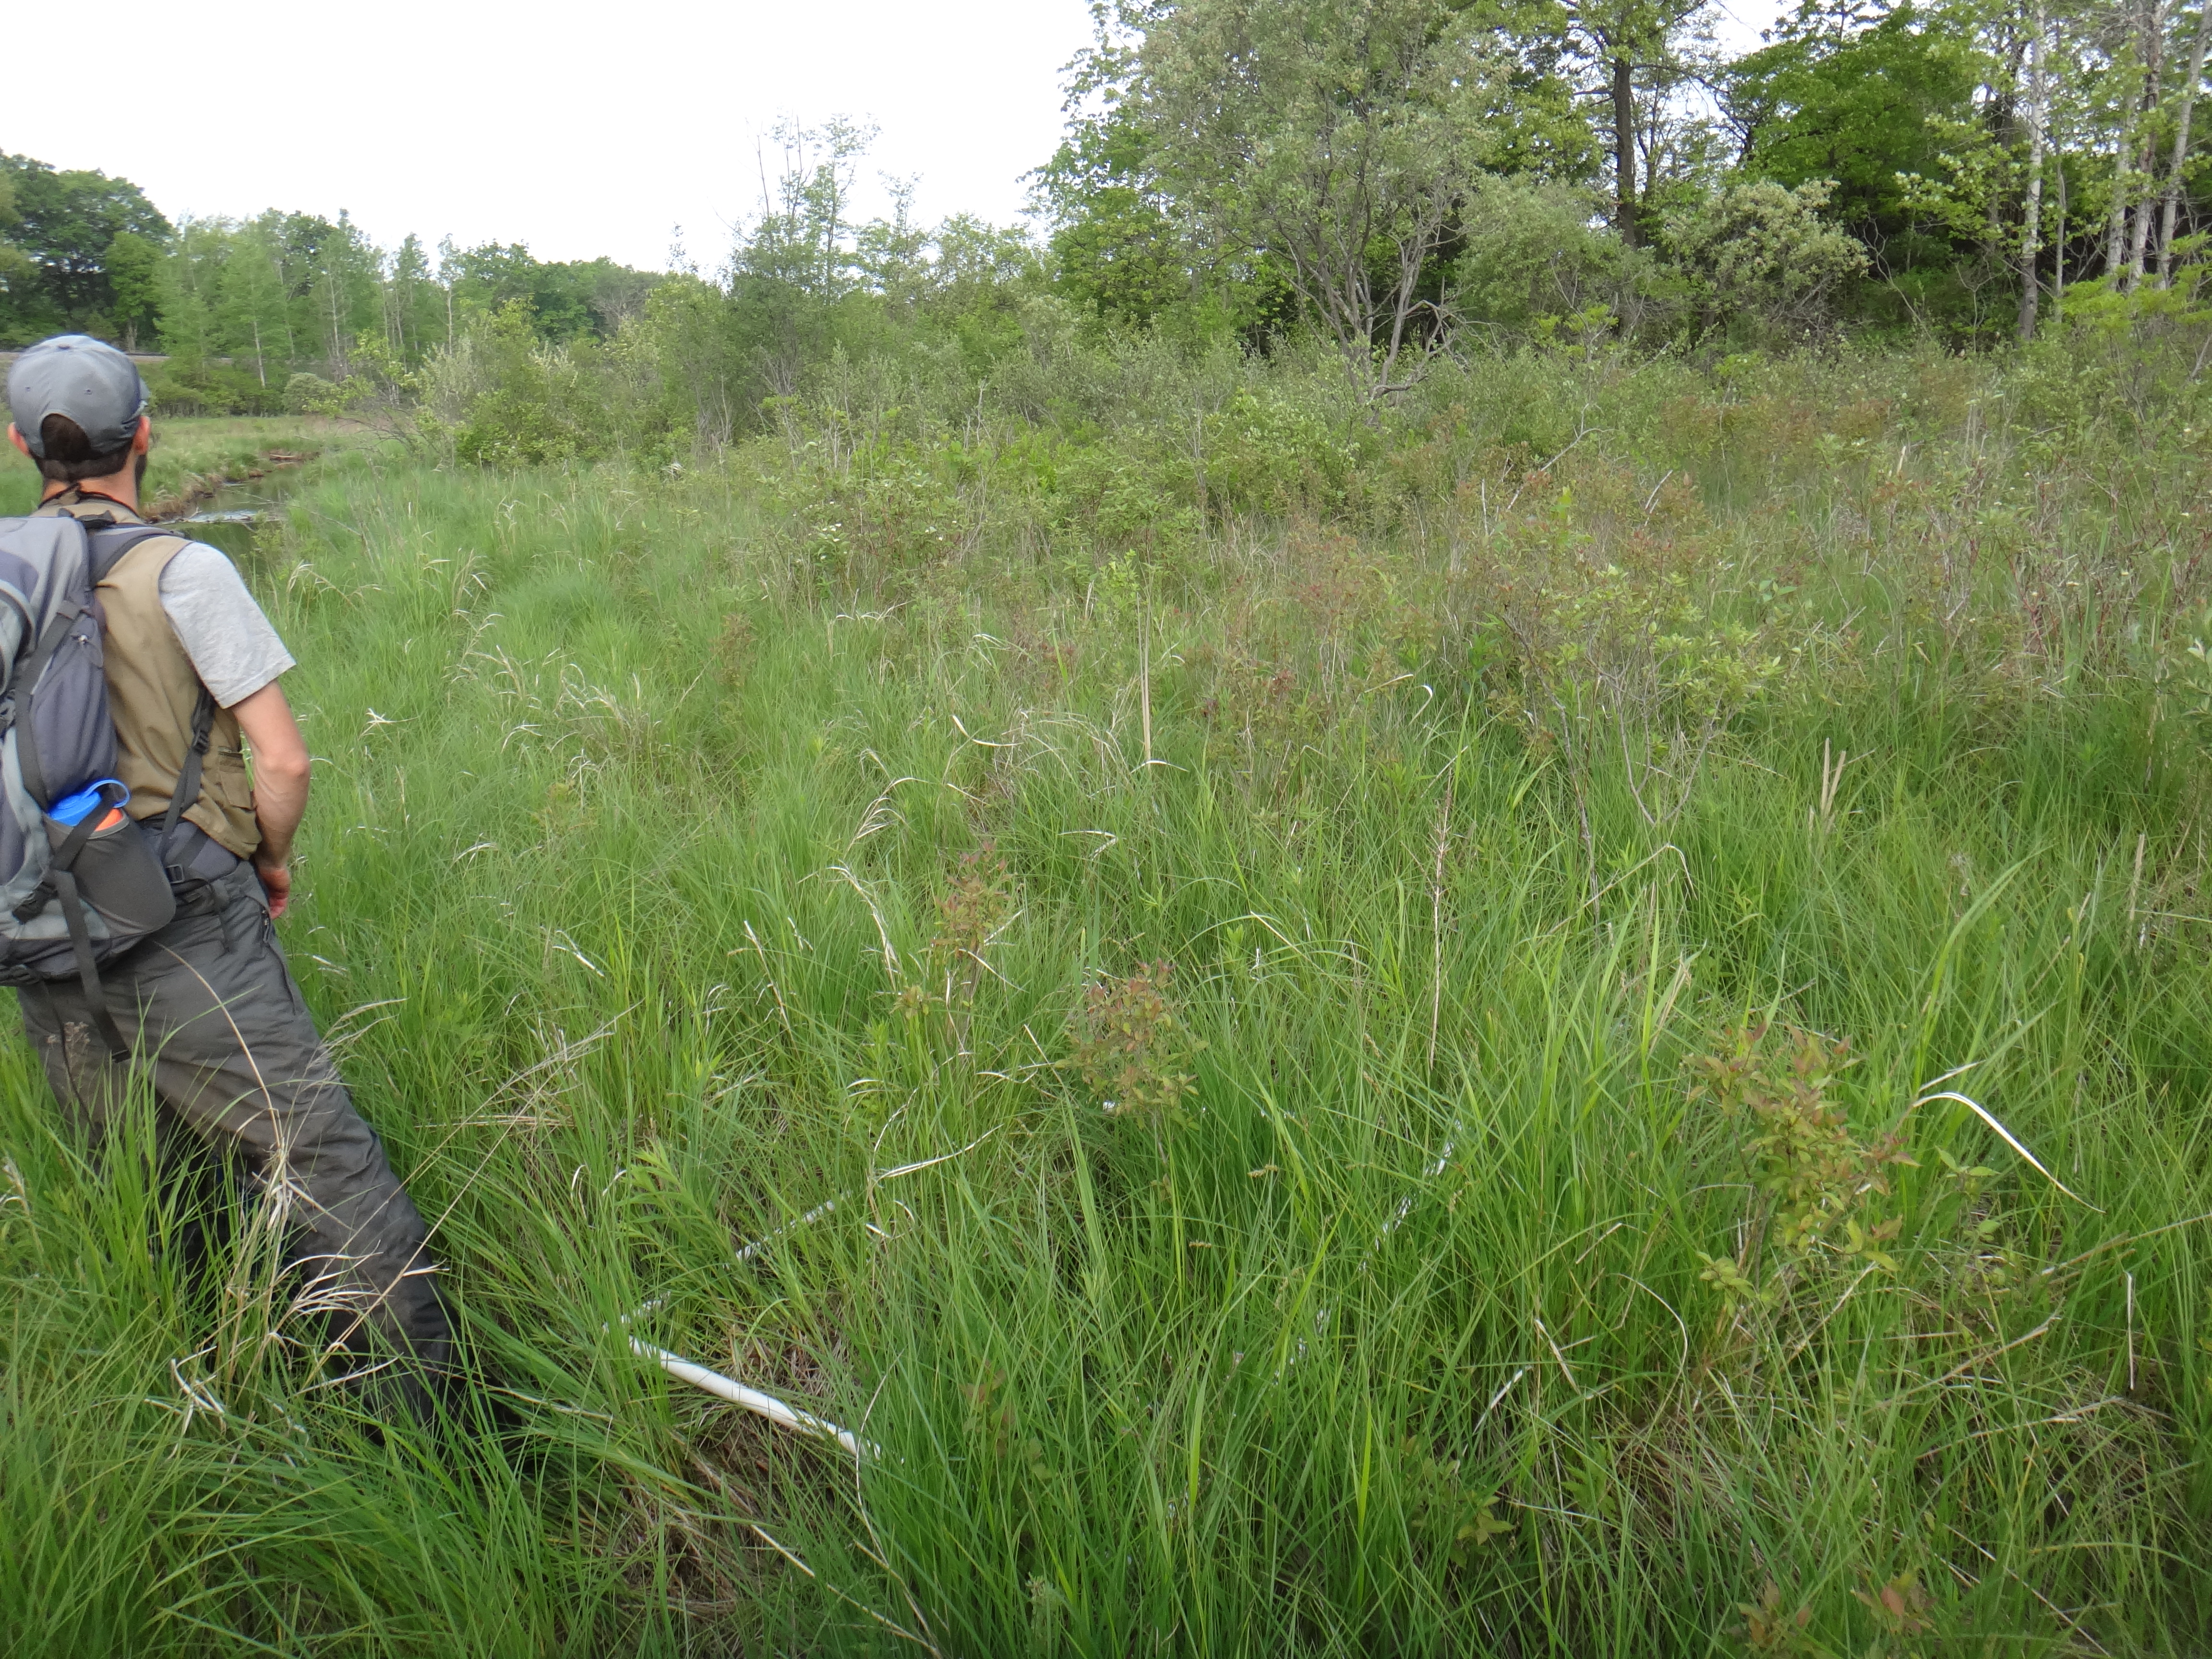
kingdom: Plantae
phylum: Tracheophyta
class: Polypodiopsida
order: Polypodiales
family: Thelypteridaceae
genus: Thelypteris
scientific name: Thelypteris palustris
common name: Marsh fern
